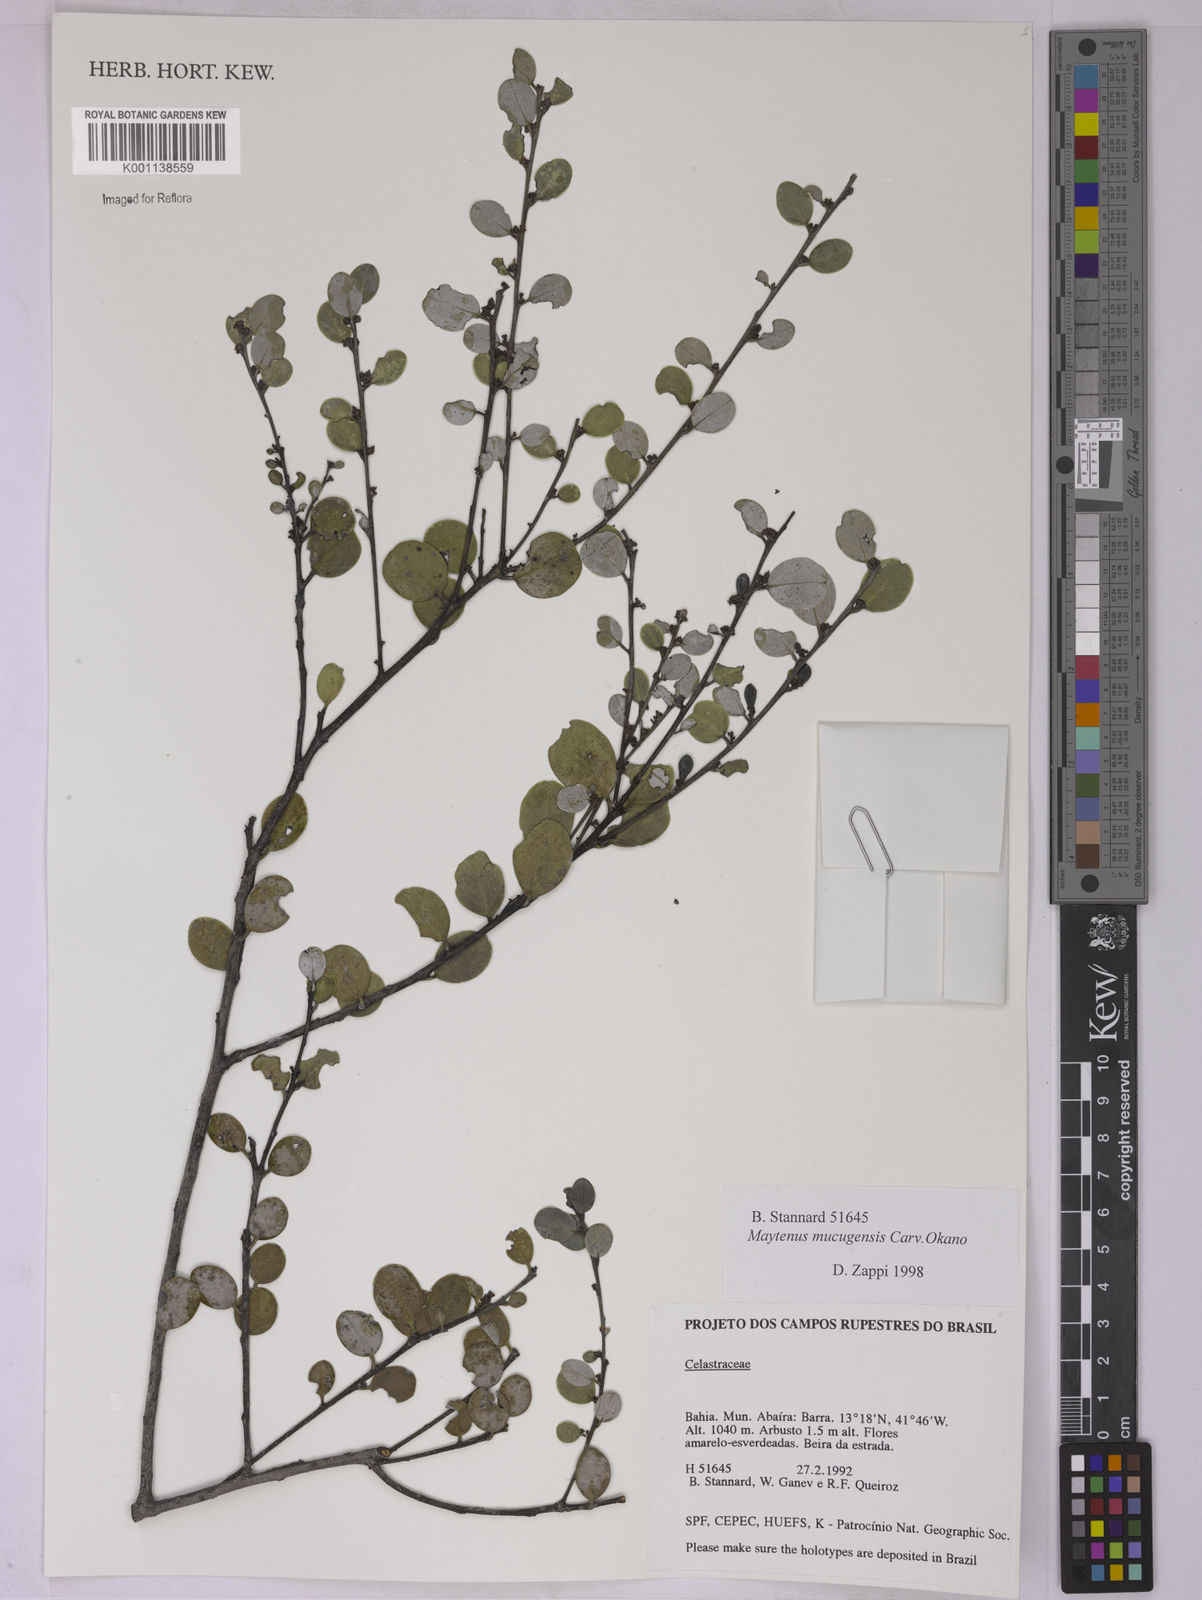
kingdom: Plantae
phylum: Tracheophyta
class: Magnoliopsida
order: Celastrales
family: Celastraceae
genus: Monteverdia
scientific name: Monteverdia mucugensis
